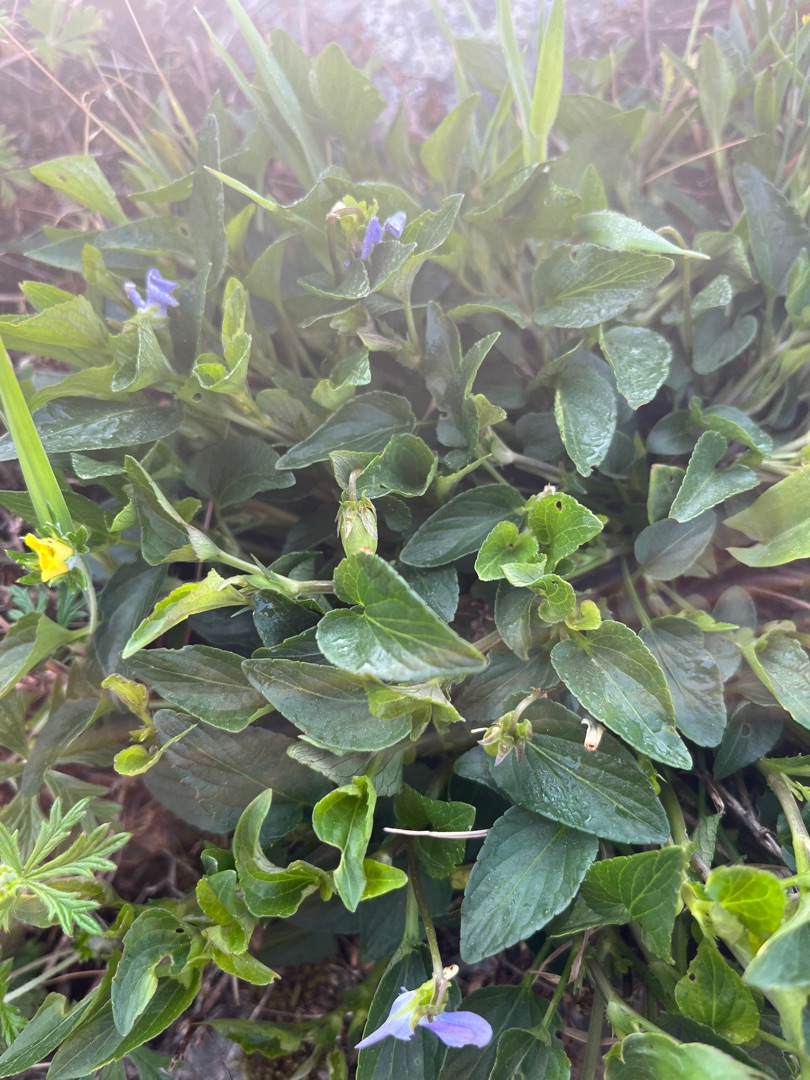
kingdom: Plantae
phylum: Tracheophyta
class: Magnoliopsida
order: Malpighiales
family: Violaceae
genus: Viola
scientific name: Viola canina
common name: Hunde-viol
